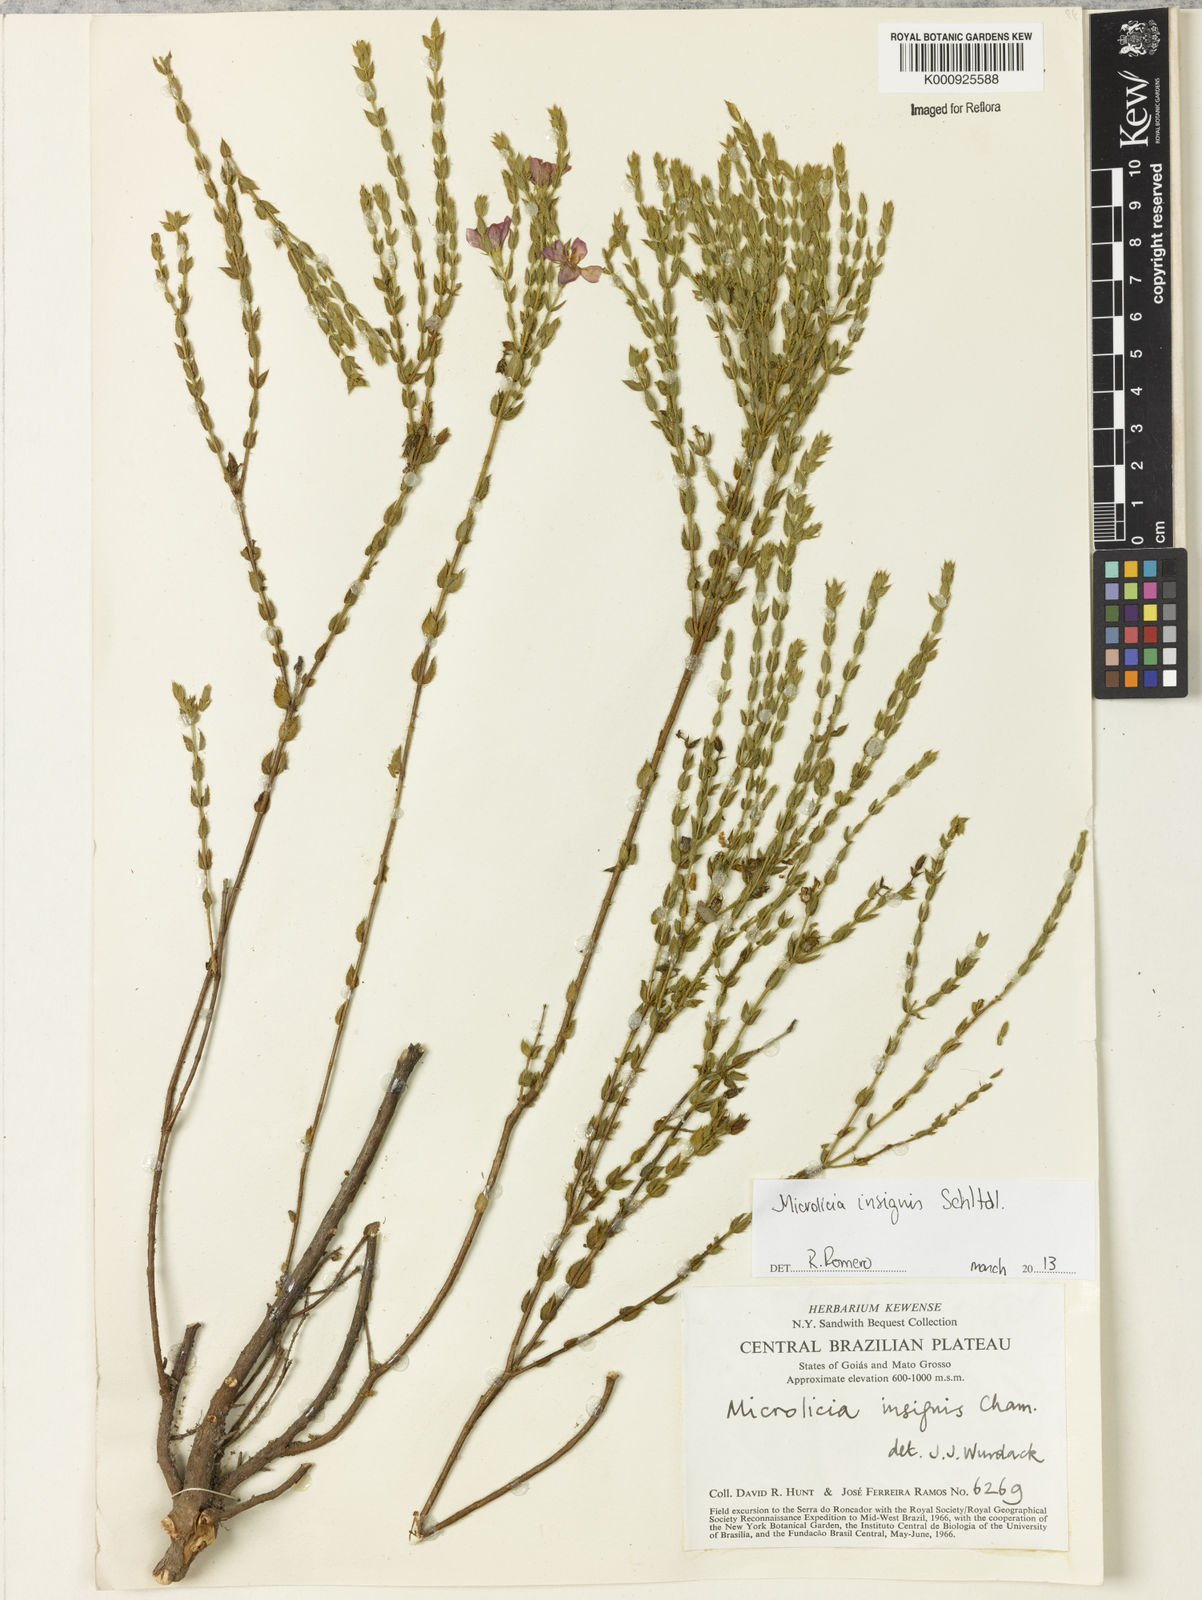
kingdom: Plantae
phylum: Tracheophyta
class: Magnoliopsida
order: Myrtales
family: Melastomataceae
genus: Microlicia
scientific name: Microlicia
